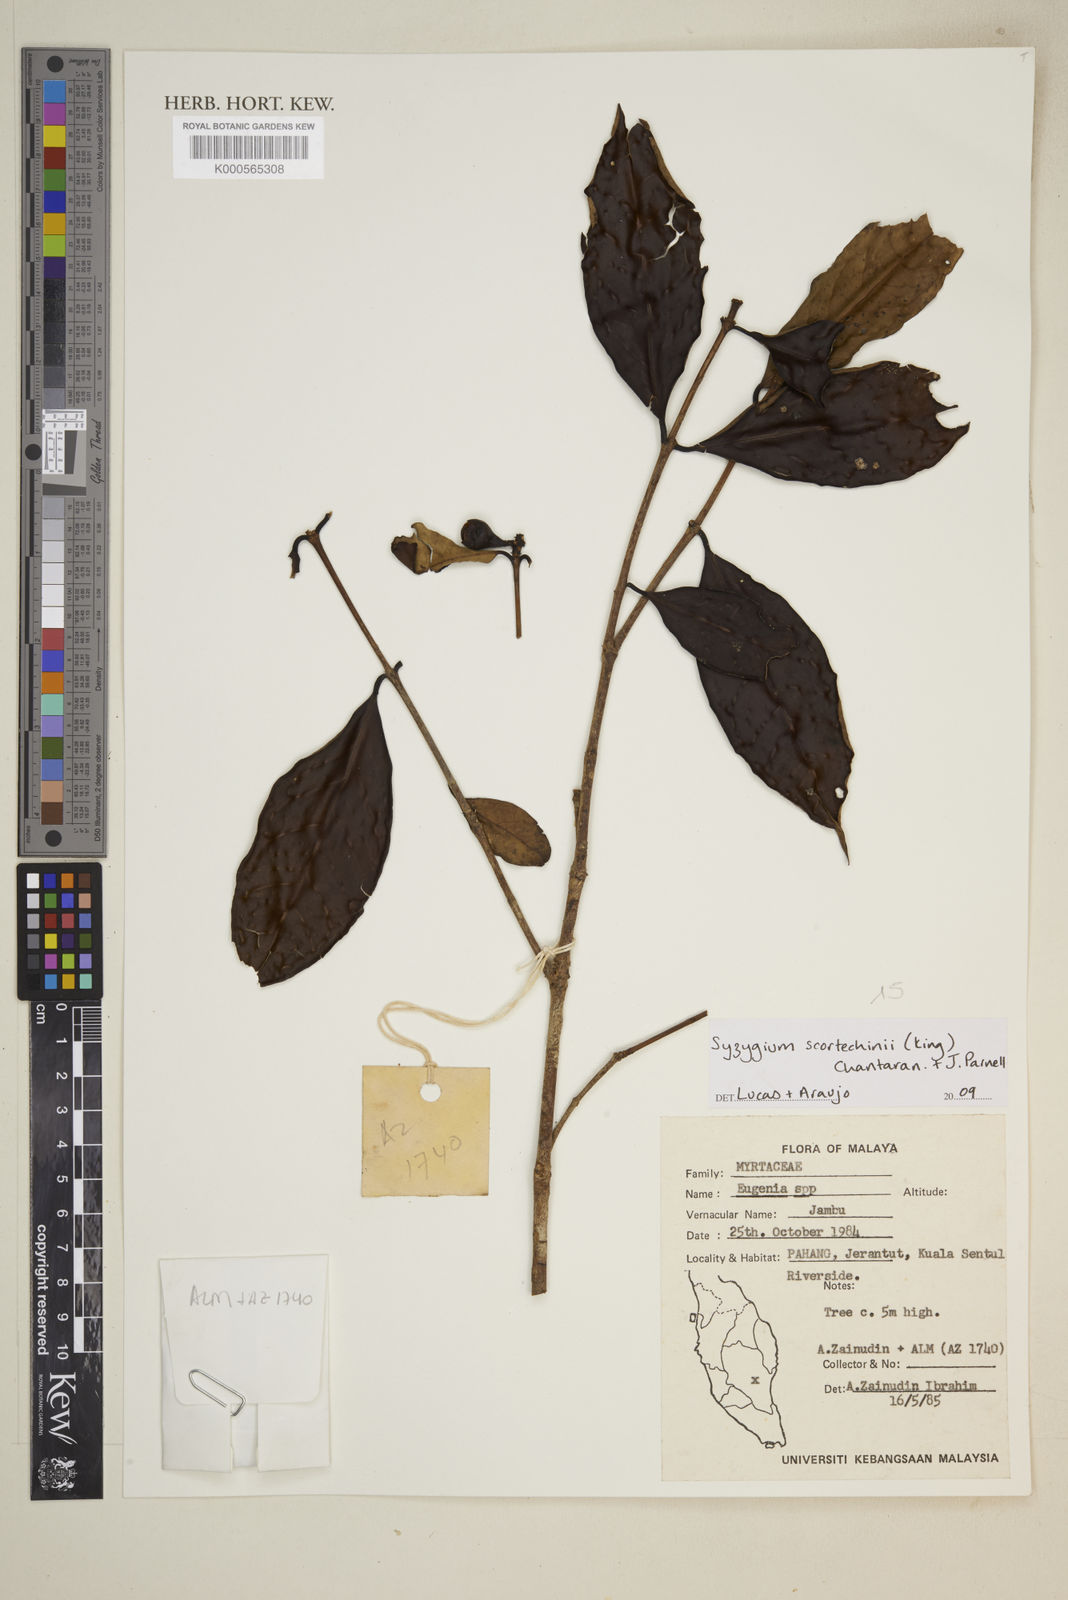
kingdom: Plantae
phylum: Tracheophyta
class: Magnoliopsida
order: Myrtales
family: Myrtaceae
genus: Syzygium
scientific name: Syzygium scortechinii
